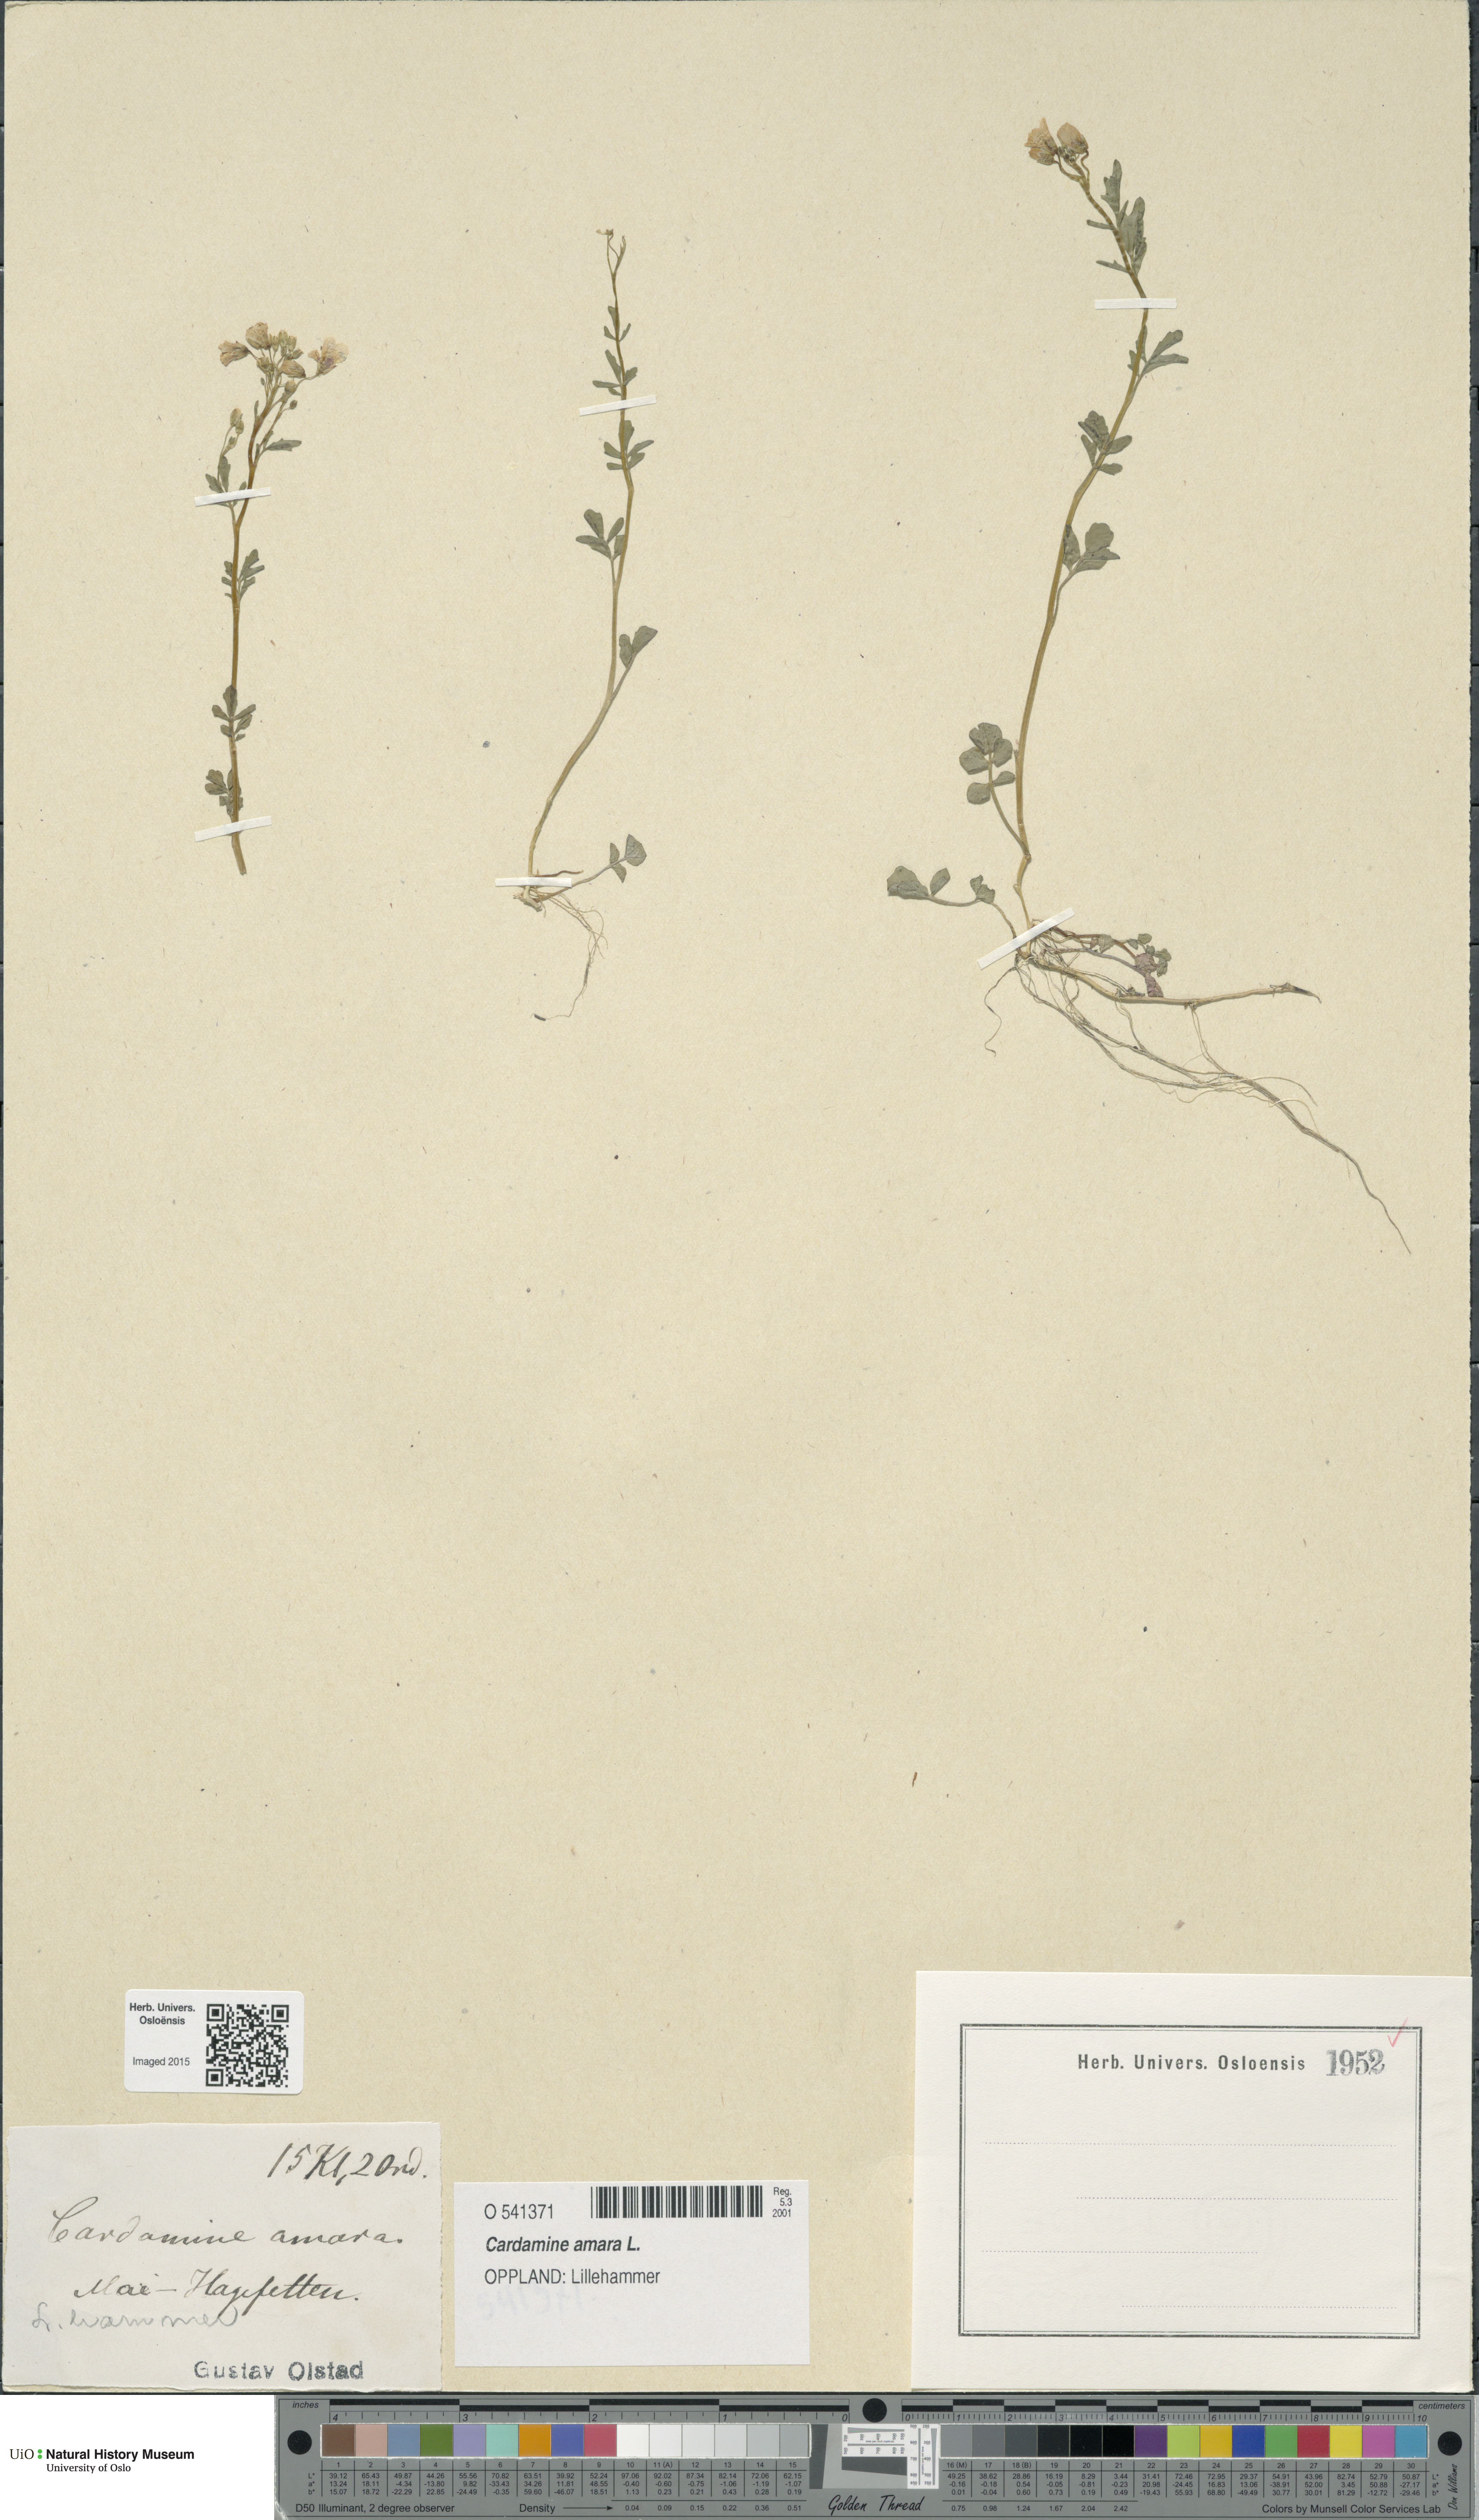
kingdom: Plantae
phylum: Tracheophyta
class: Magnoliopsida
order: Brassicales
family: Brassicaceae
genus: Cardamine
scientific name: Cardamine amara
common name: Large bitter-cress
